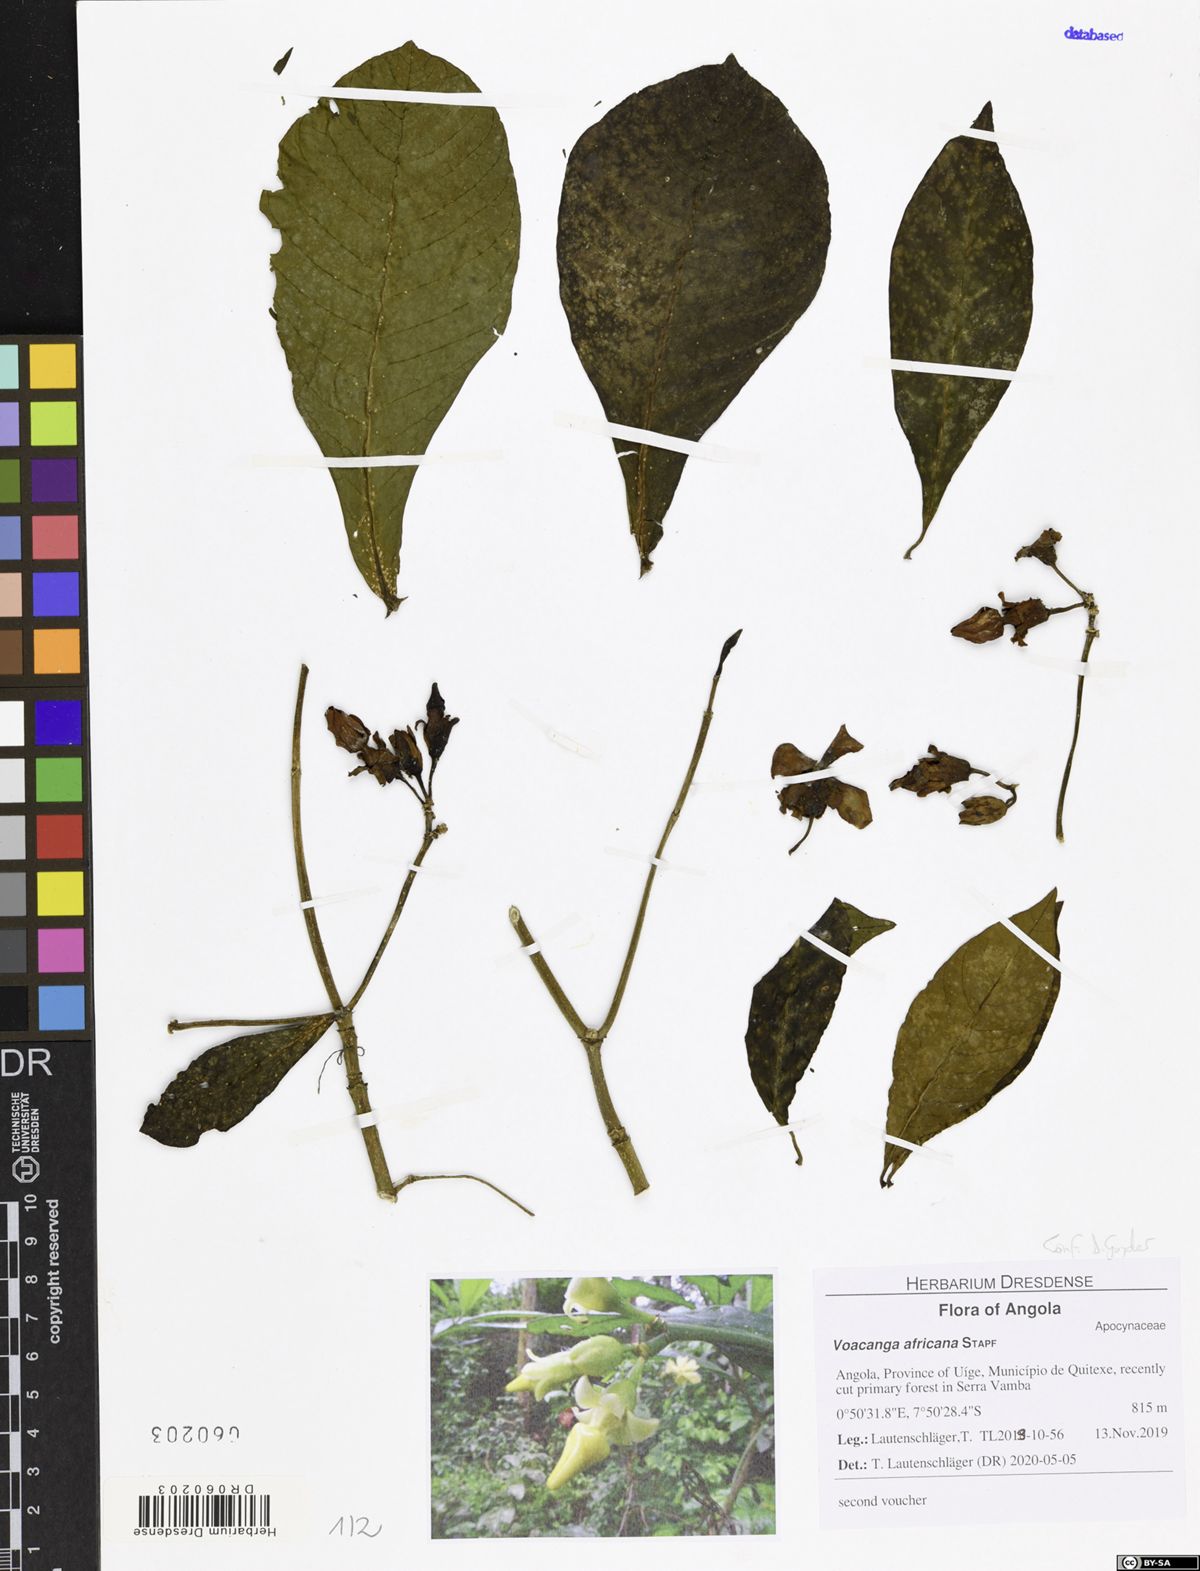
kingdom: Plantae
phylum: Tracheophyta
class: Magnoliopsida
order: Gentianales
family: Apocynaceae
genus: Voacanga
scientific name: Voacanga africana
